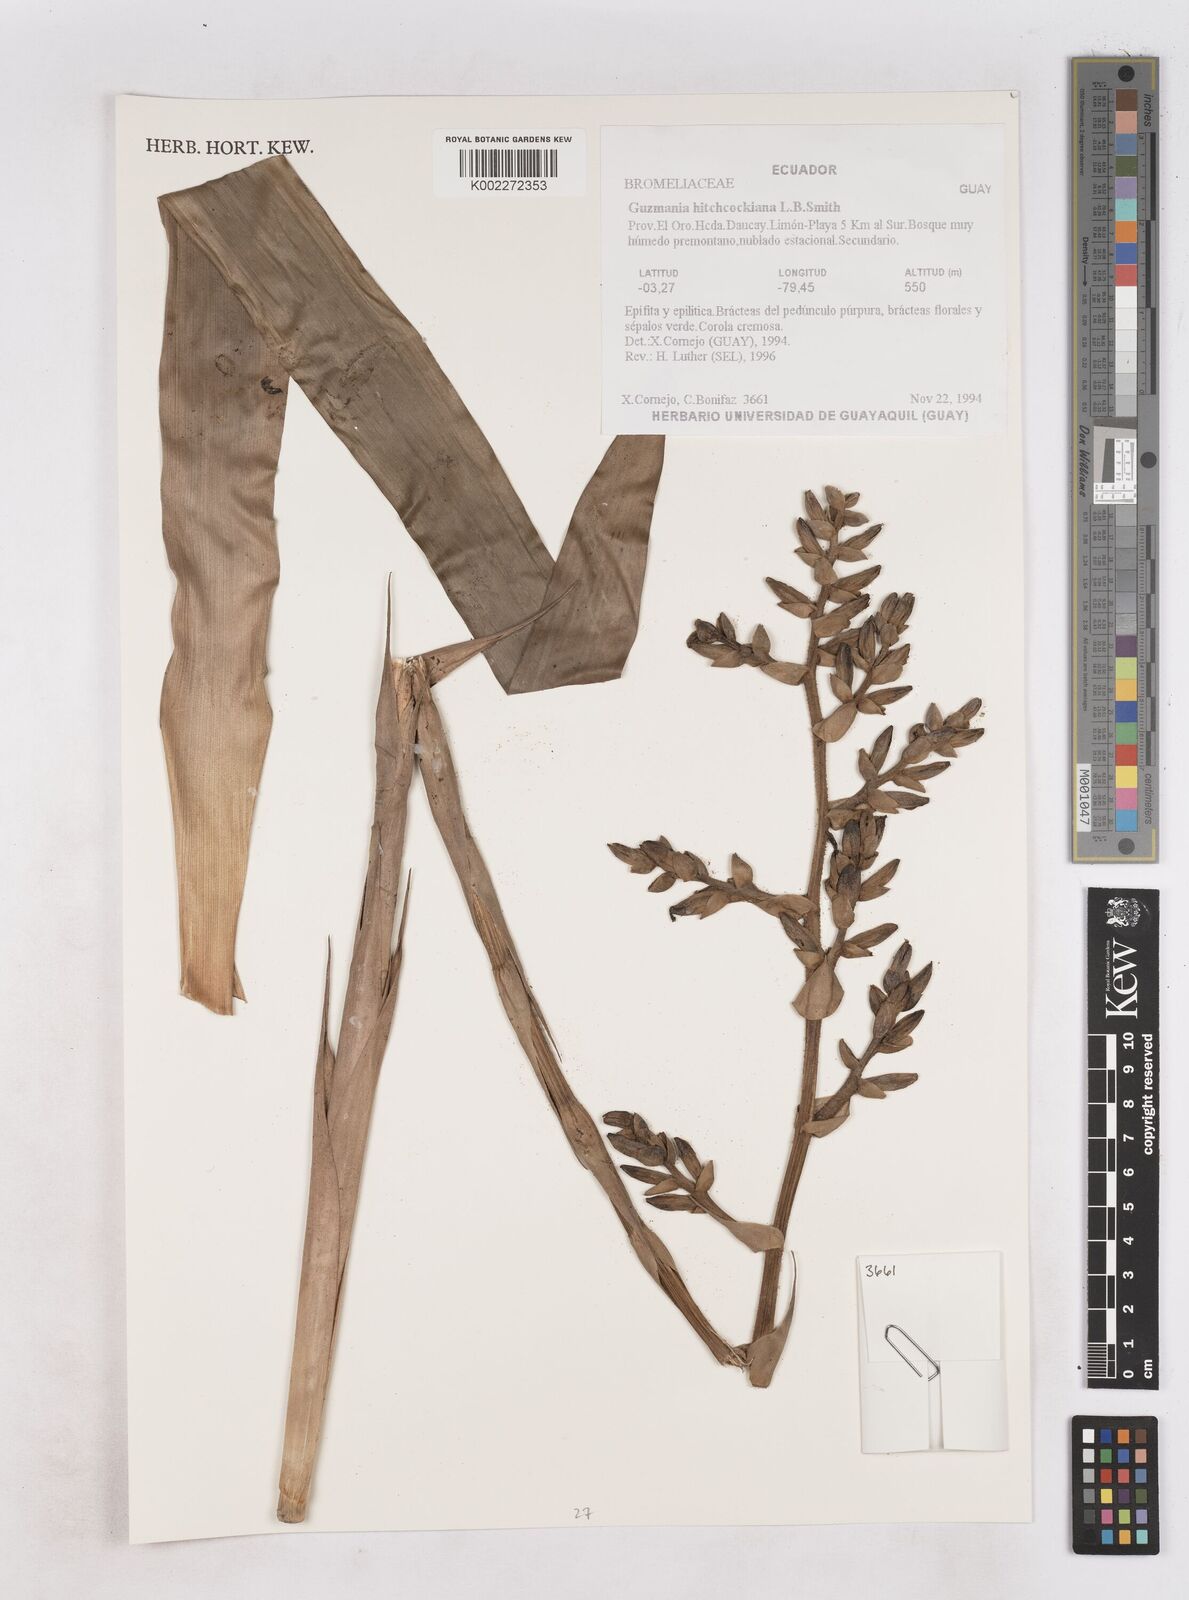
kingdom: Plantae
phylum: Tracheophyta
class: Liliopsida
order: Poales
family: Bromeliaceae
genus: Guzmania
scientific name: Guzmania hitchcockiana
